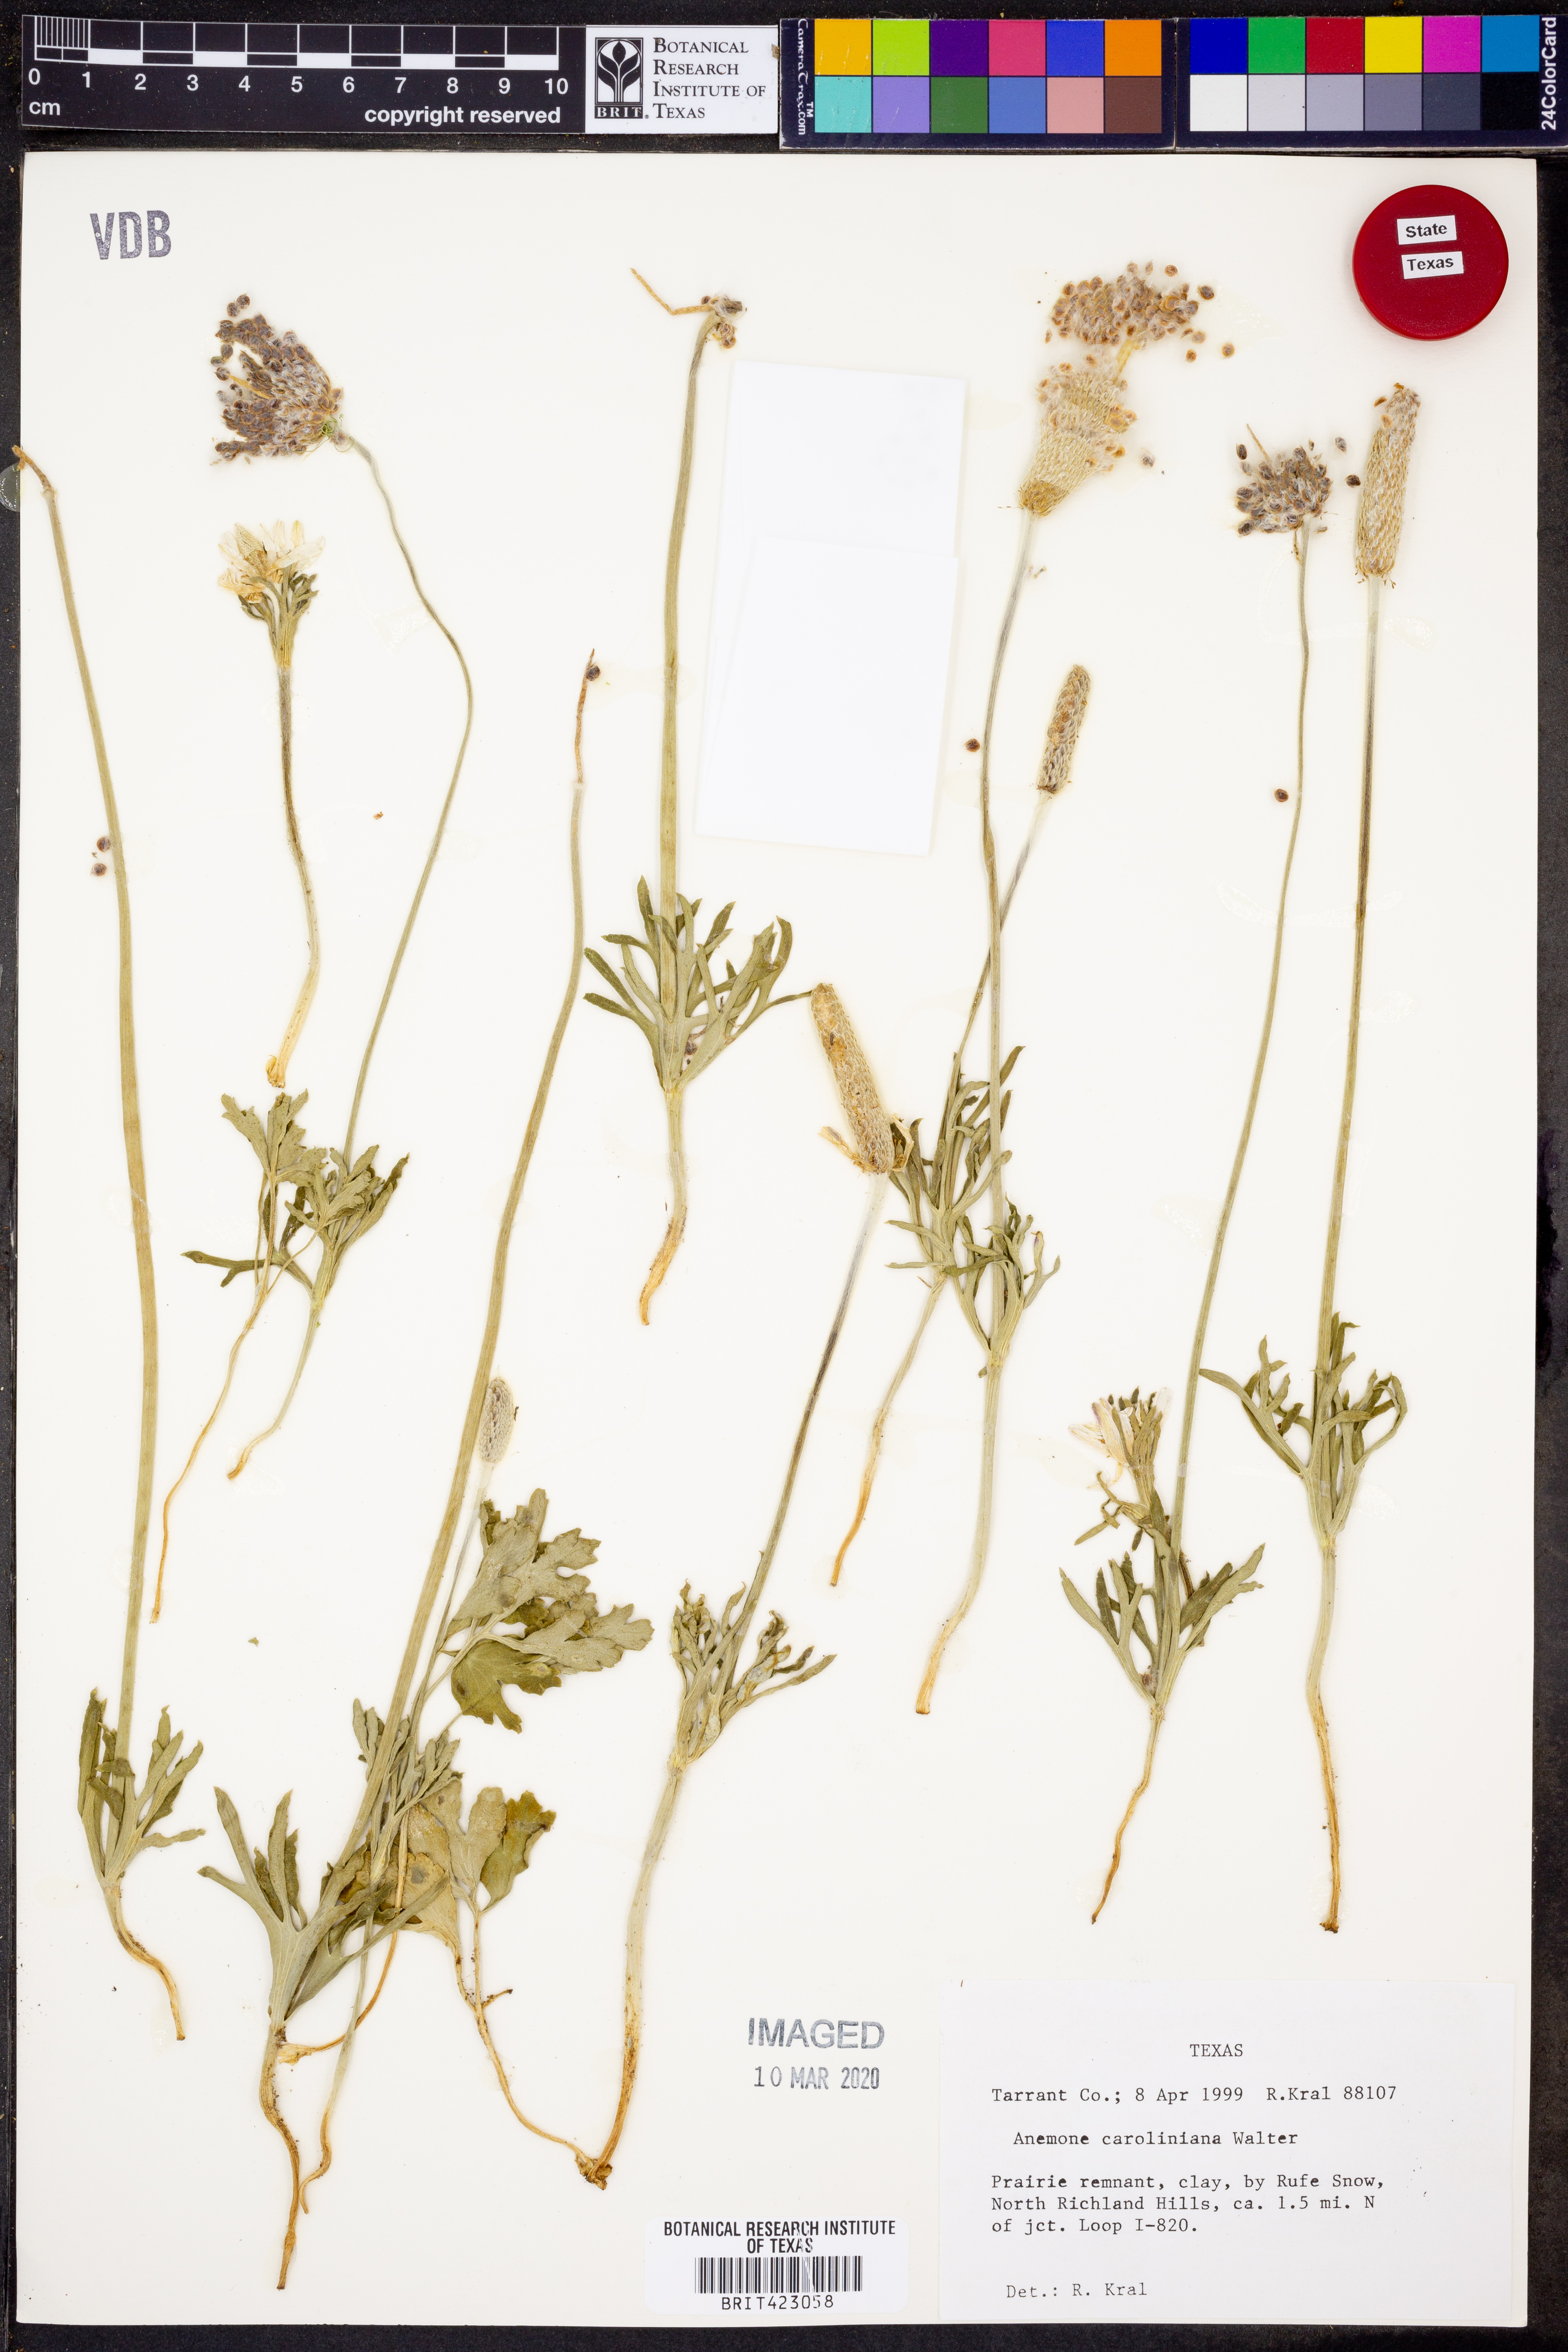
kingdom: Plantae
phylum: Tracheophyta
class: Magnoliopsida
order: Ranunculales
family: Ranunculaceae
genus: Anemone
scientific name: Anemone caroliniana
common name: Carolina anemone
